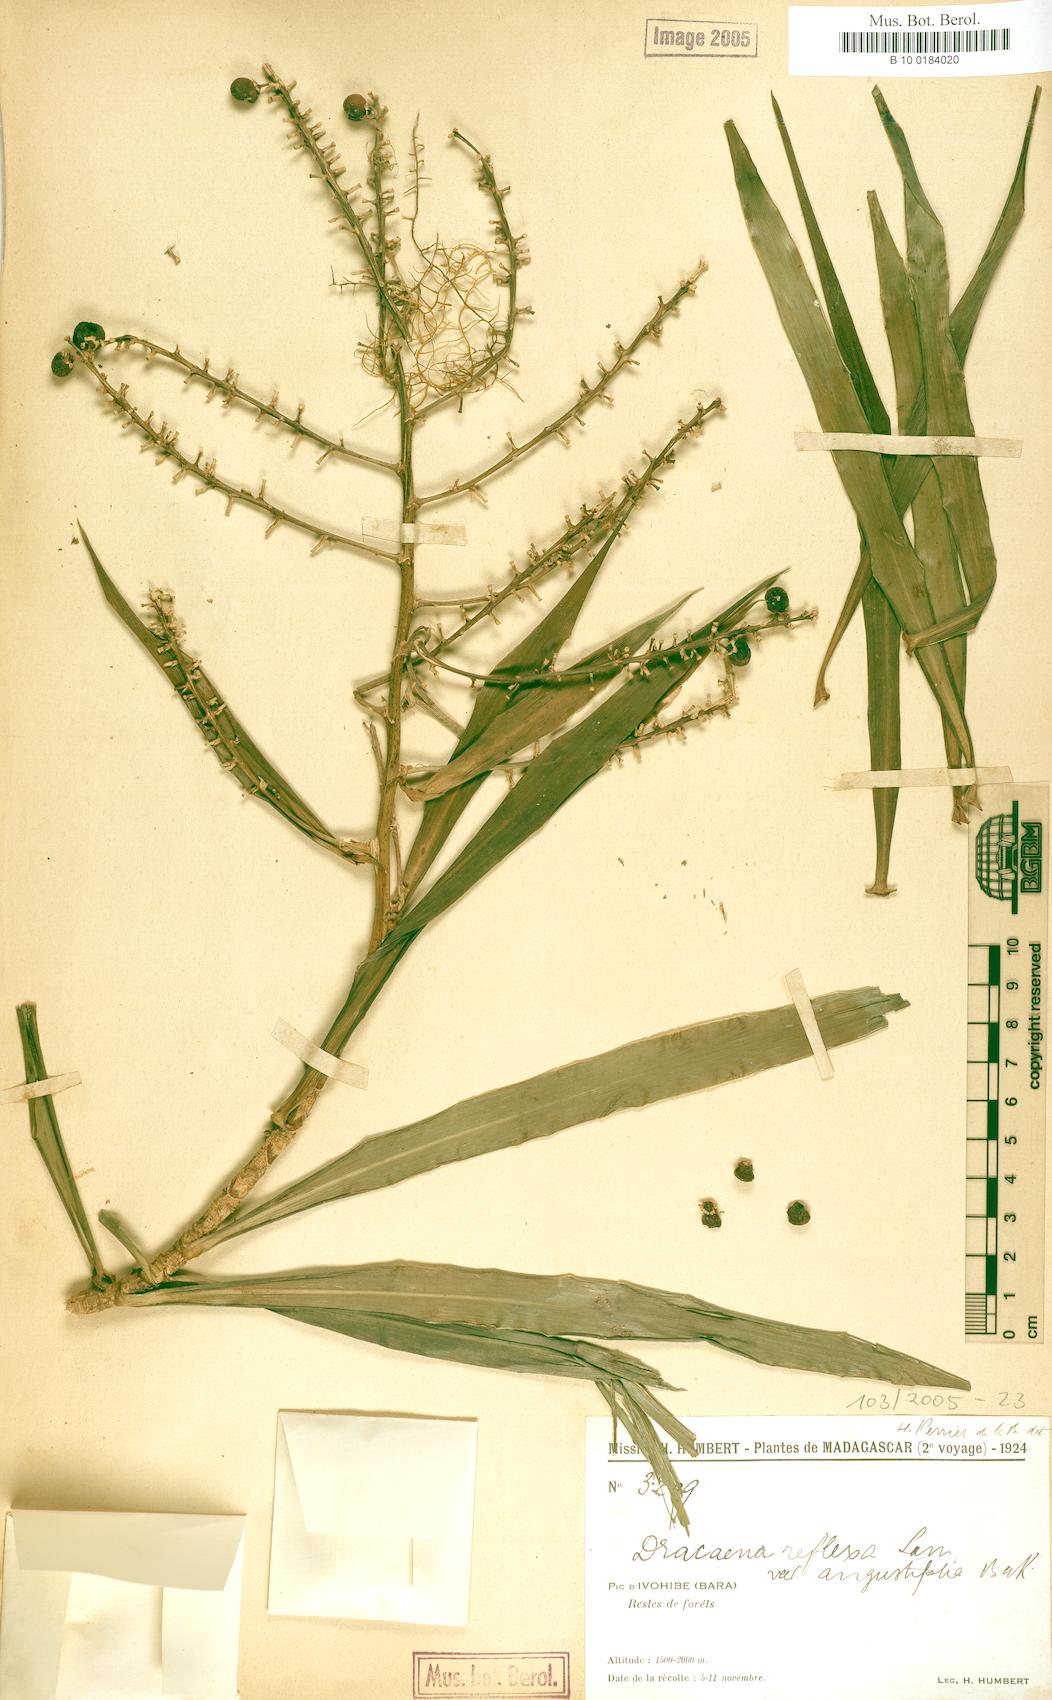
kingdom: Plantae
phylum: Tracheophyta
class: Liliopsida
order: Asparagales
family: Asparagaceae
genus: Dracaena
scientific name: Dracaena mannii
